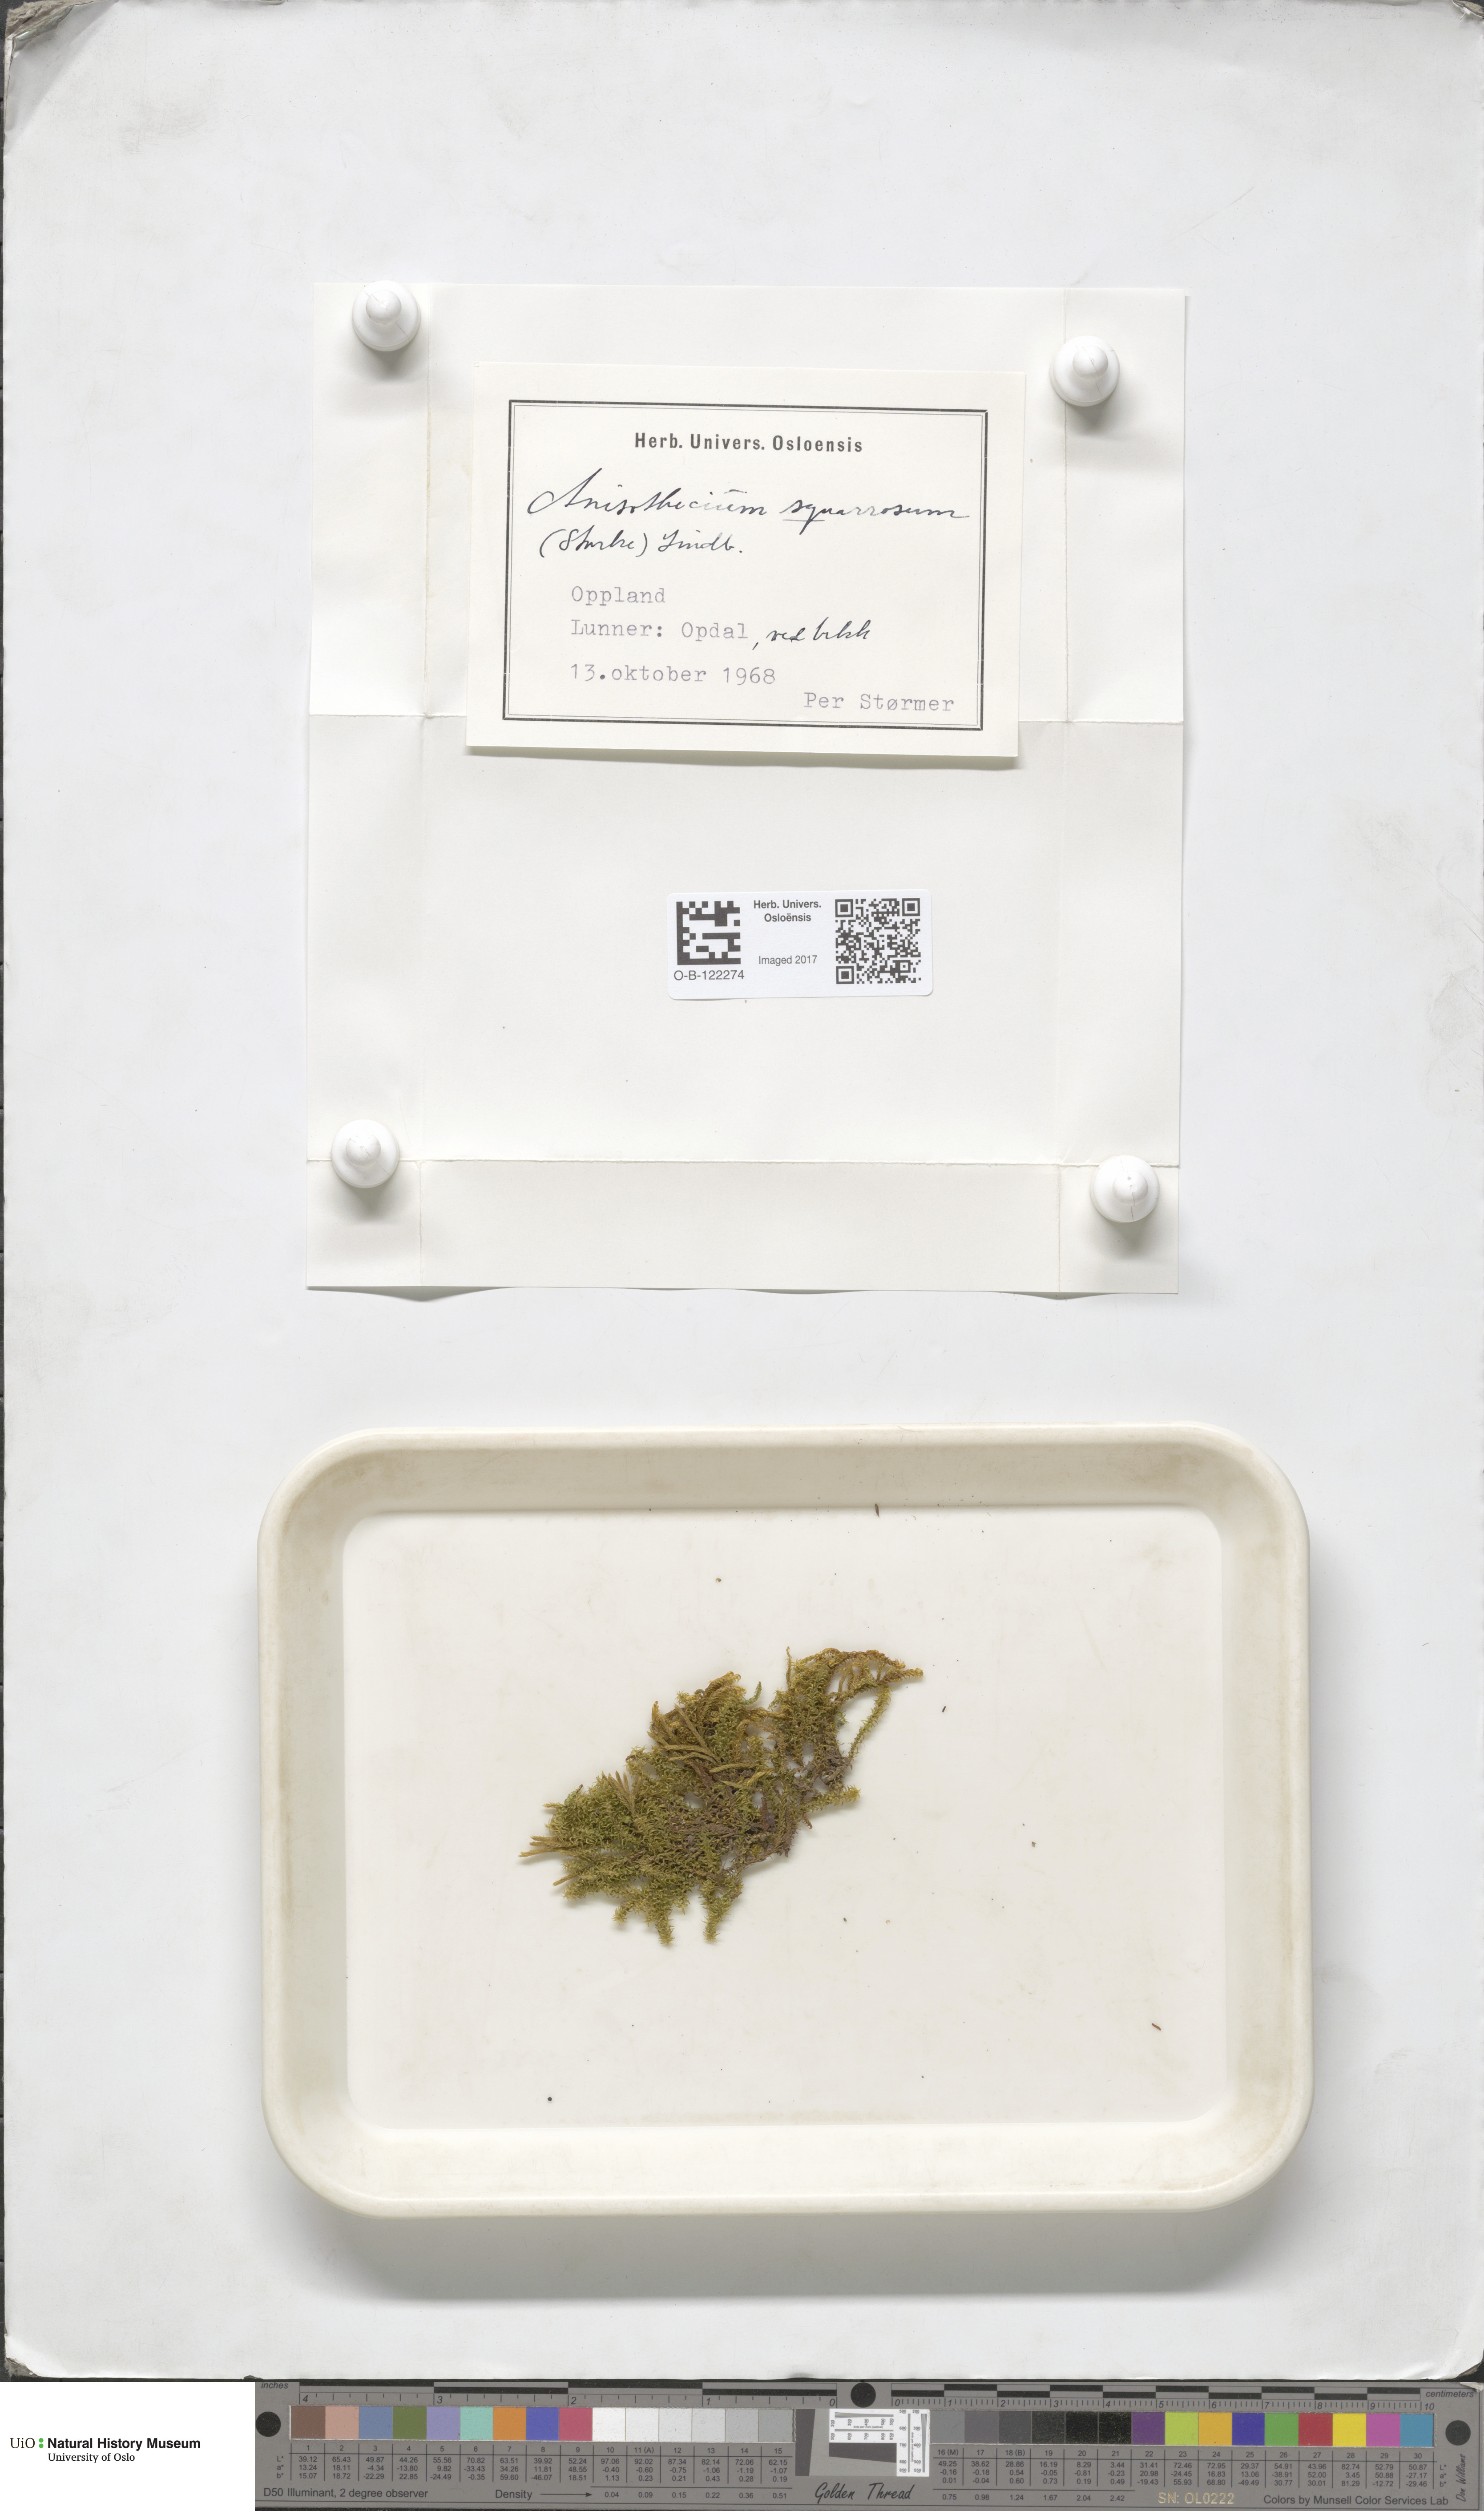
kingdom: Plantae
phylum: Bryophyta
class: Bryopsida
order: Dicranales
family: Aongstroemiaceae
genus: Diobelonella
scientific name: Diobelonella palustris
